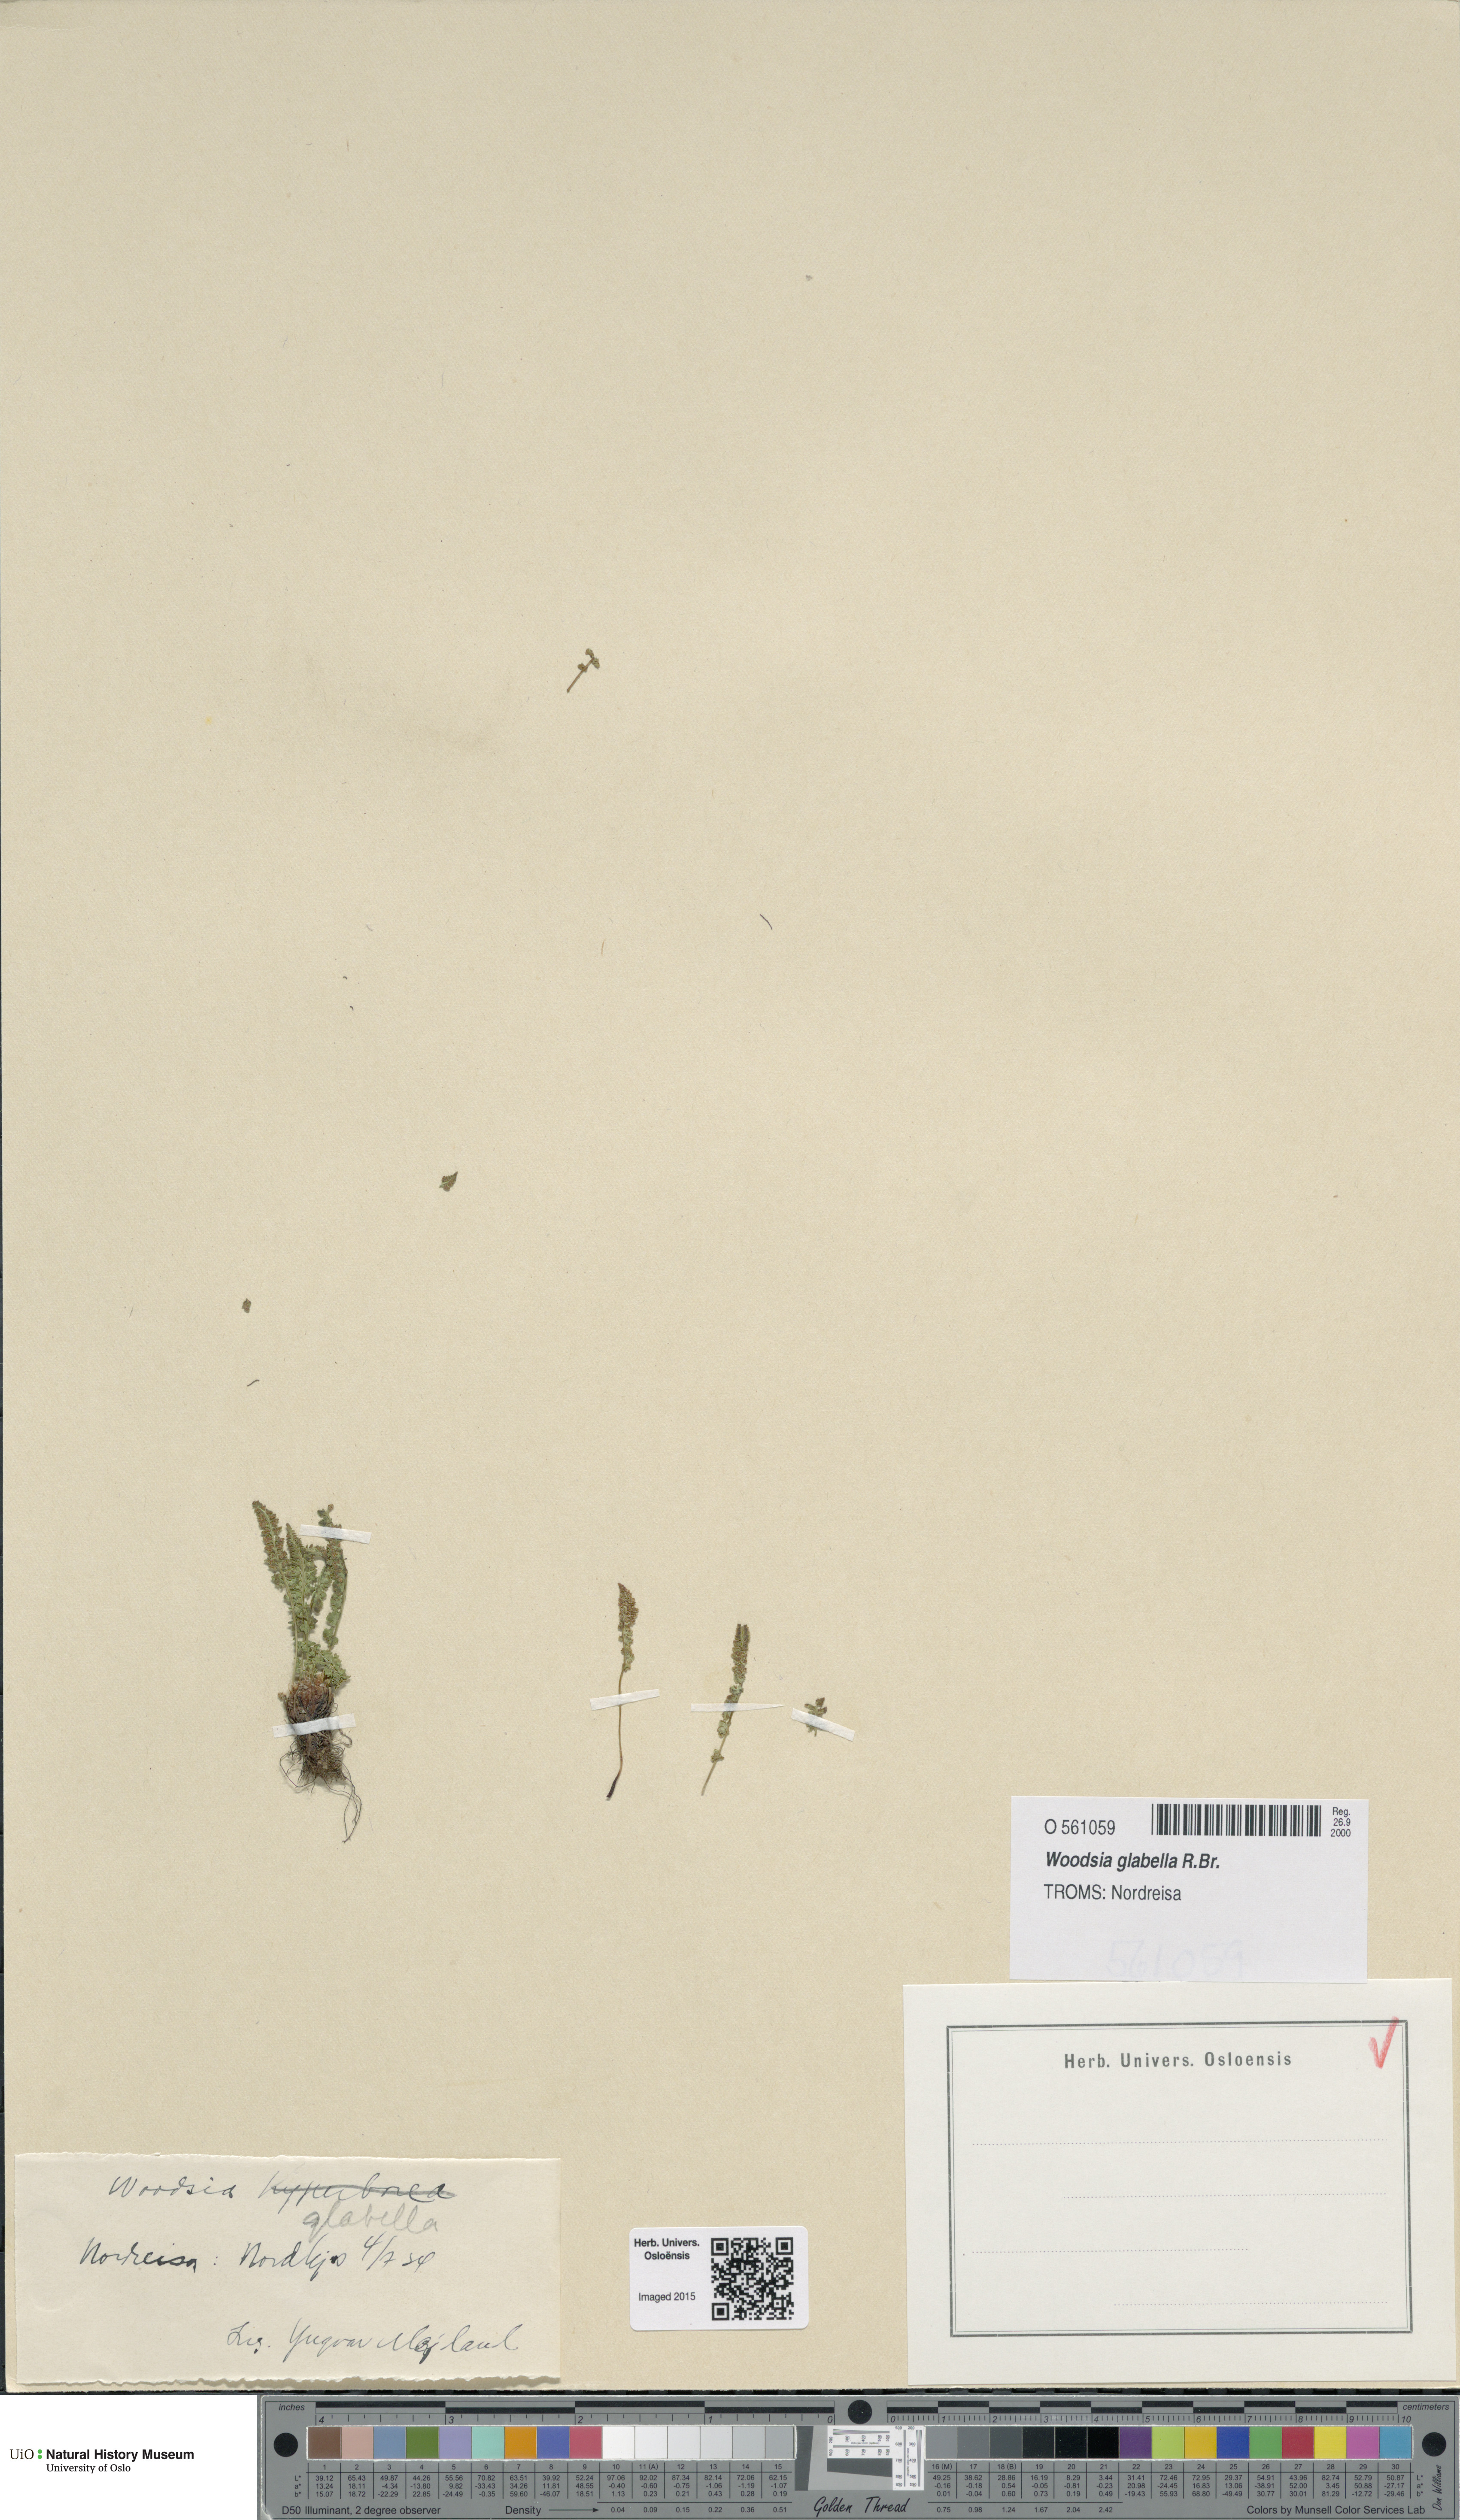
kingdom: Plantae
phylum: Tracheophyta
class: Polypodiopsida
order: Polypodiales
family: Woodsiaceae
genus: Woodsia
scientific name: Woodsia glabella
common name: Smooth woodsia
